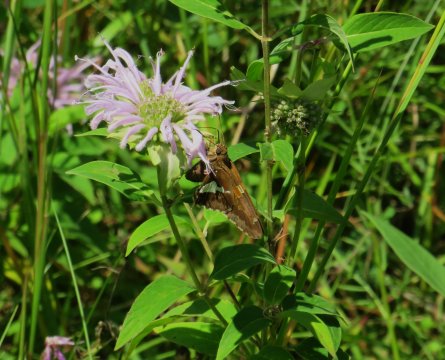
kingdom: Animalia
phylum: Arthropoda
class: Insecta
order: Lepidoptera
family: Hesperiidae
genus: Epargyreus
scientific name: Epargyreus clarus
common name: Silver-spotted Skipper
